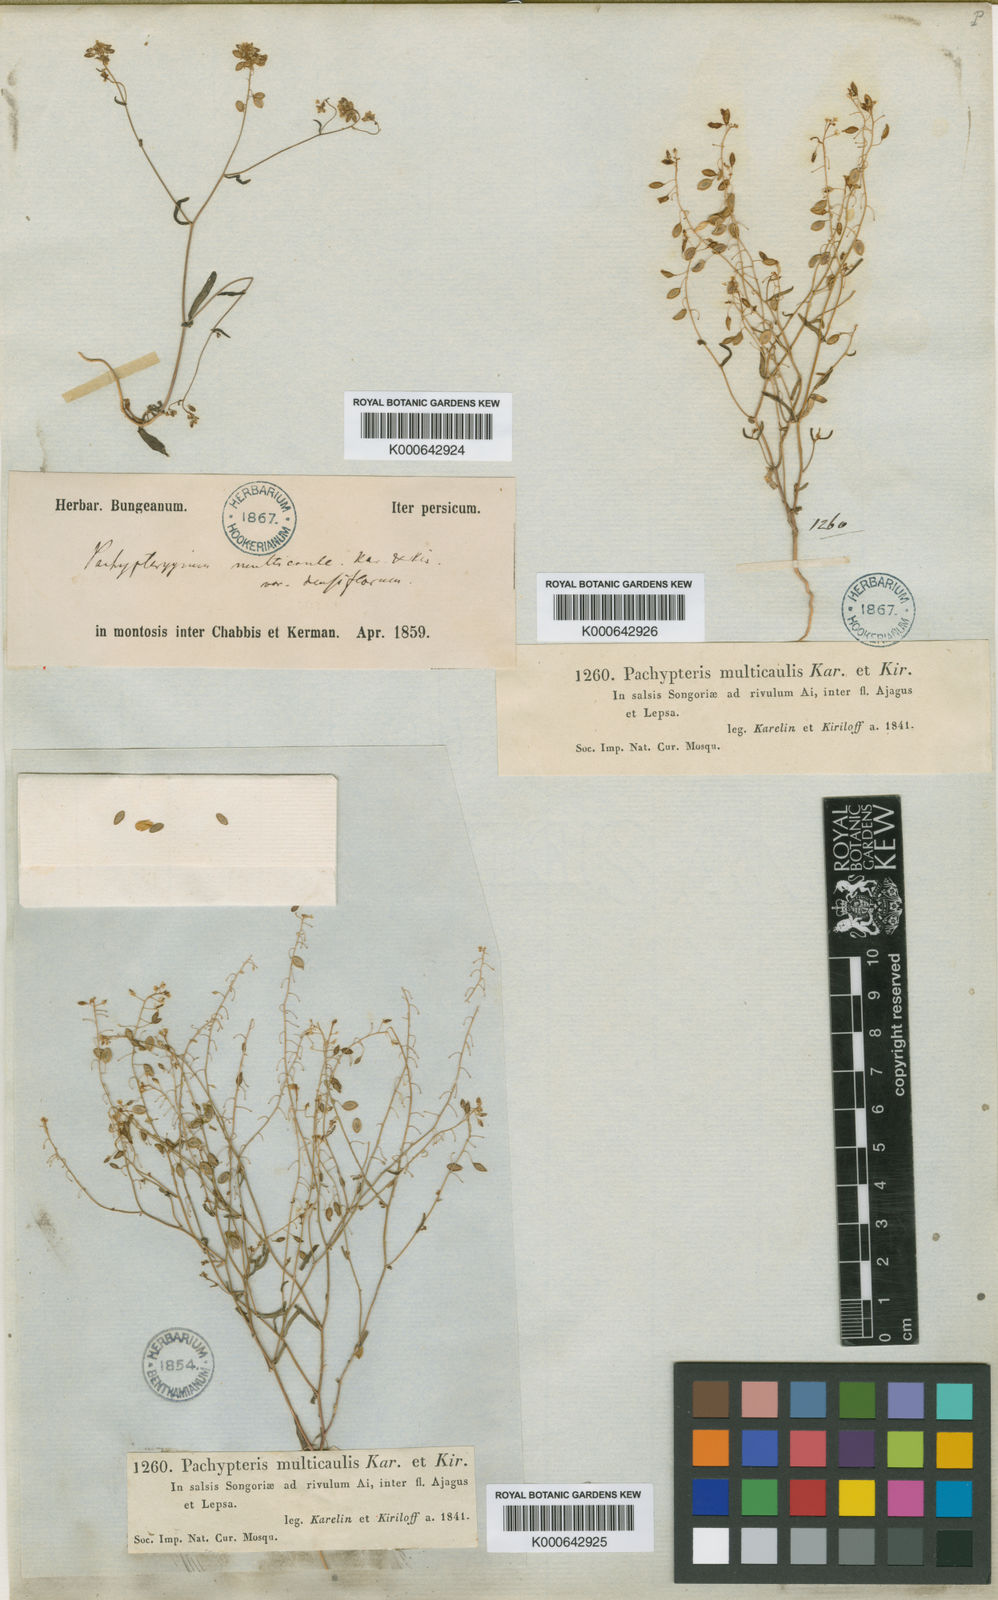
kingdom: Plantae
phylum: Tracheophyta
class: Magnoliopsida
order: Brassicales
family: Brassicaceae
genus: Isatis
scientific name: Isatis multicaulis
